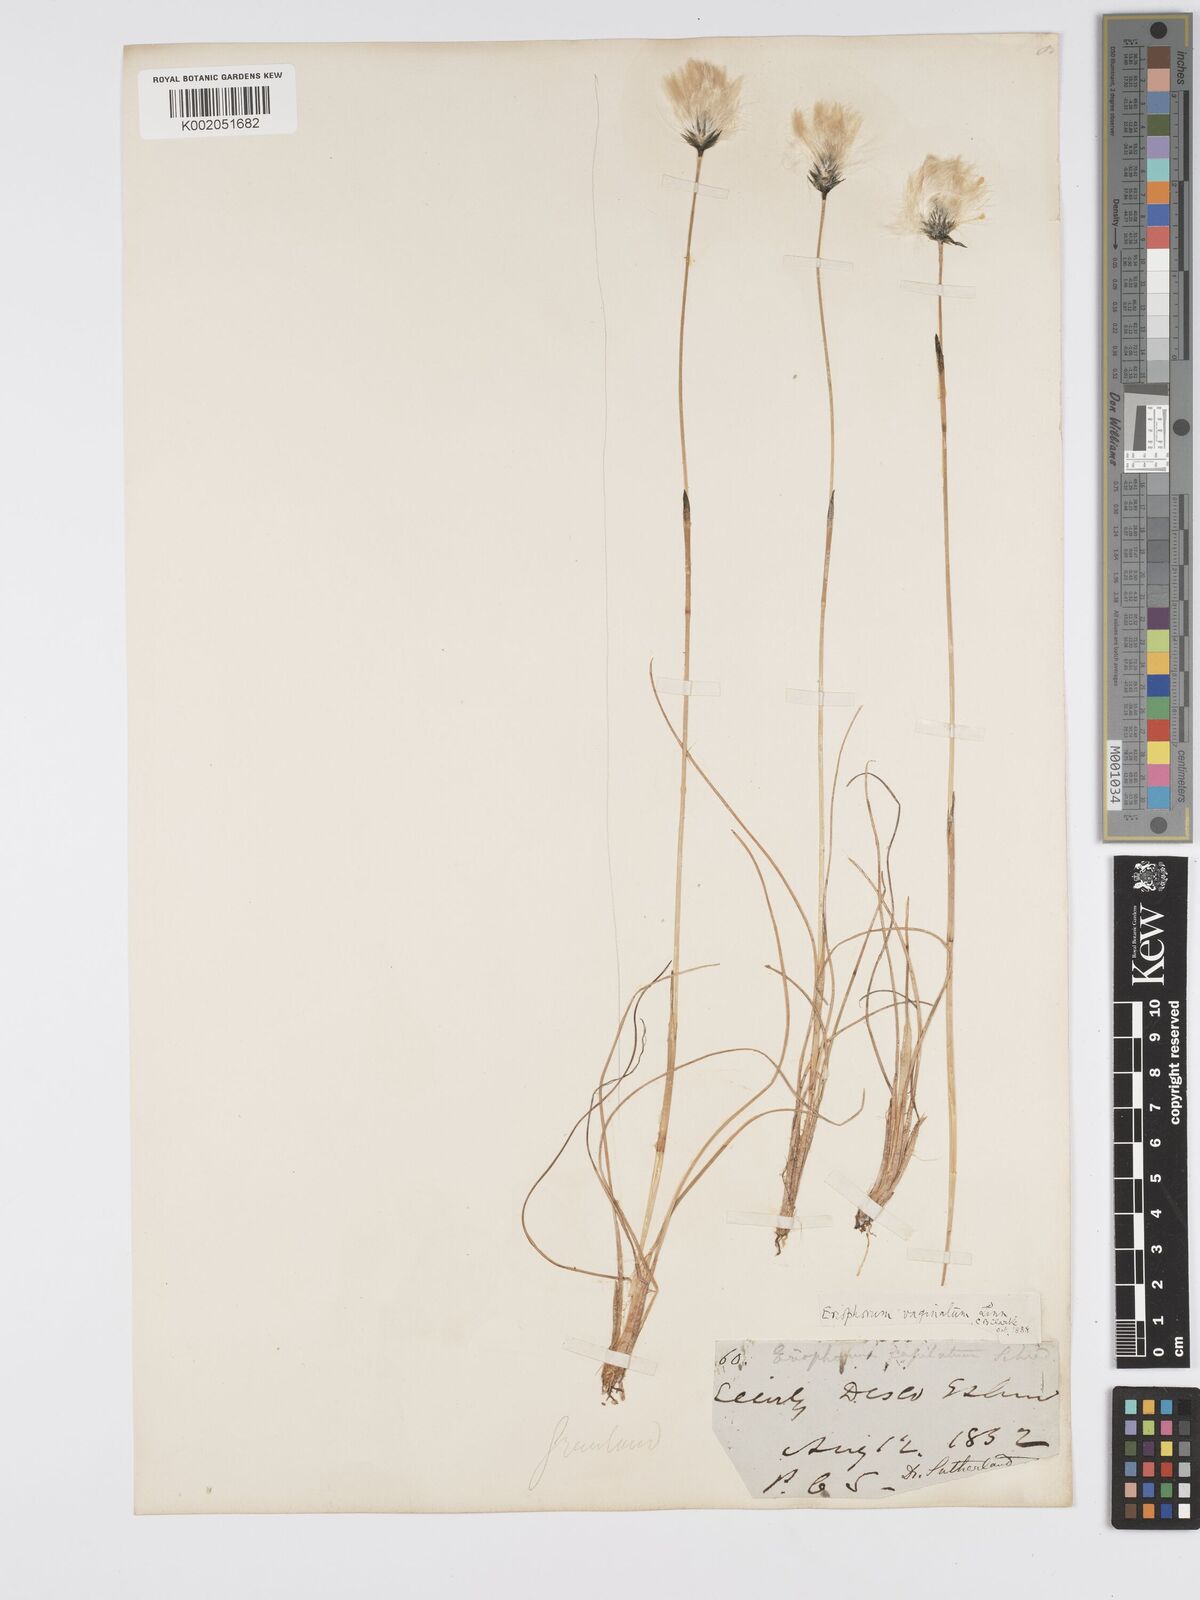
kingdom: Plantae
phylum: Tracheophyta
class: Liliopsida
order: Poales
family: Cyperaceae
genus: Eriophorum
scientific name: Eriophorum vaginatum
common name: Hare's-tail cottongrass
